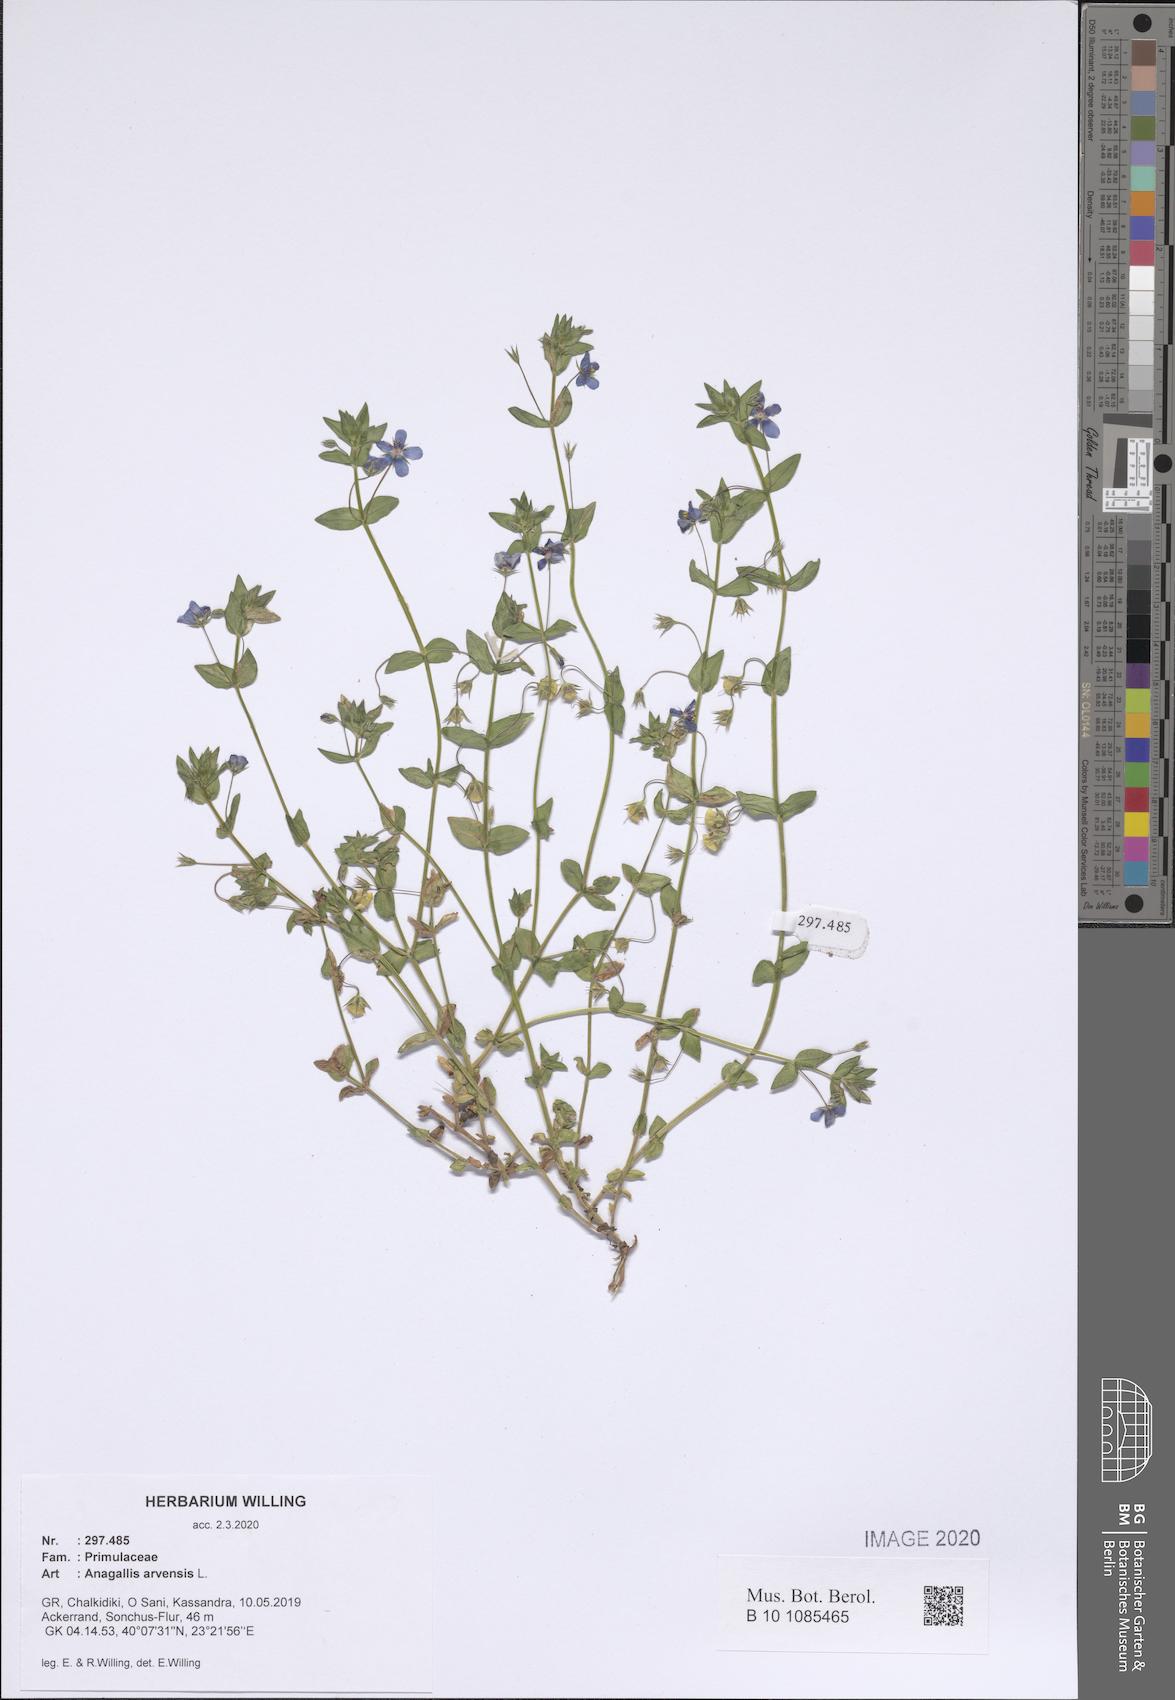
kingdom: Plantae
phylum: Tracheophyta
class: Magnoliopsida
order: Ericales
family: Primulaceae
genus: Lysimachia
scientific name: Lysimachia arvensis
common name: Scarlet pimpernel
